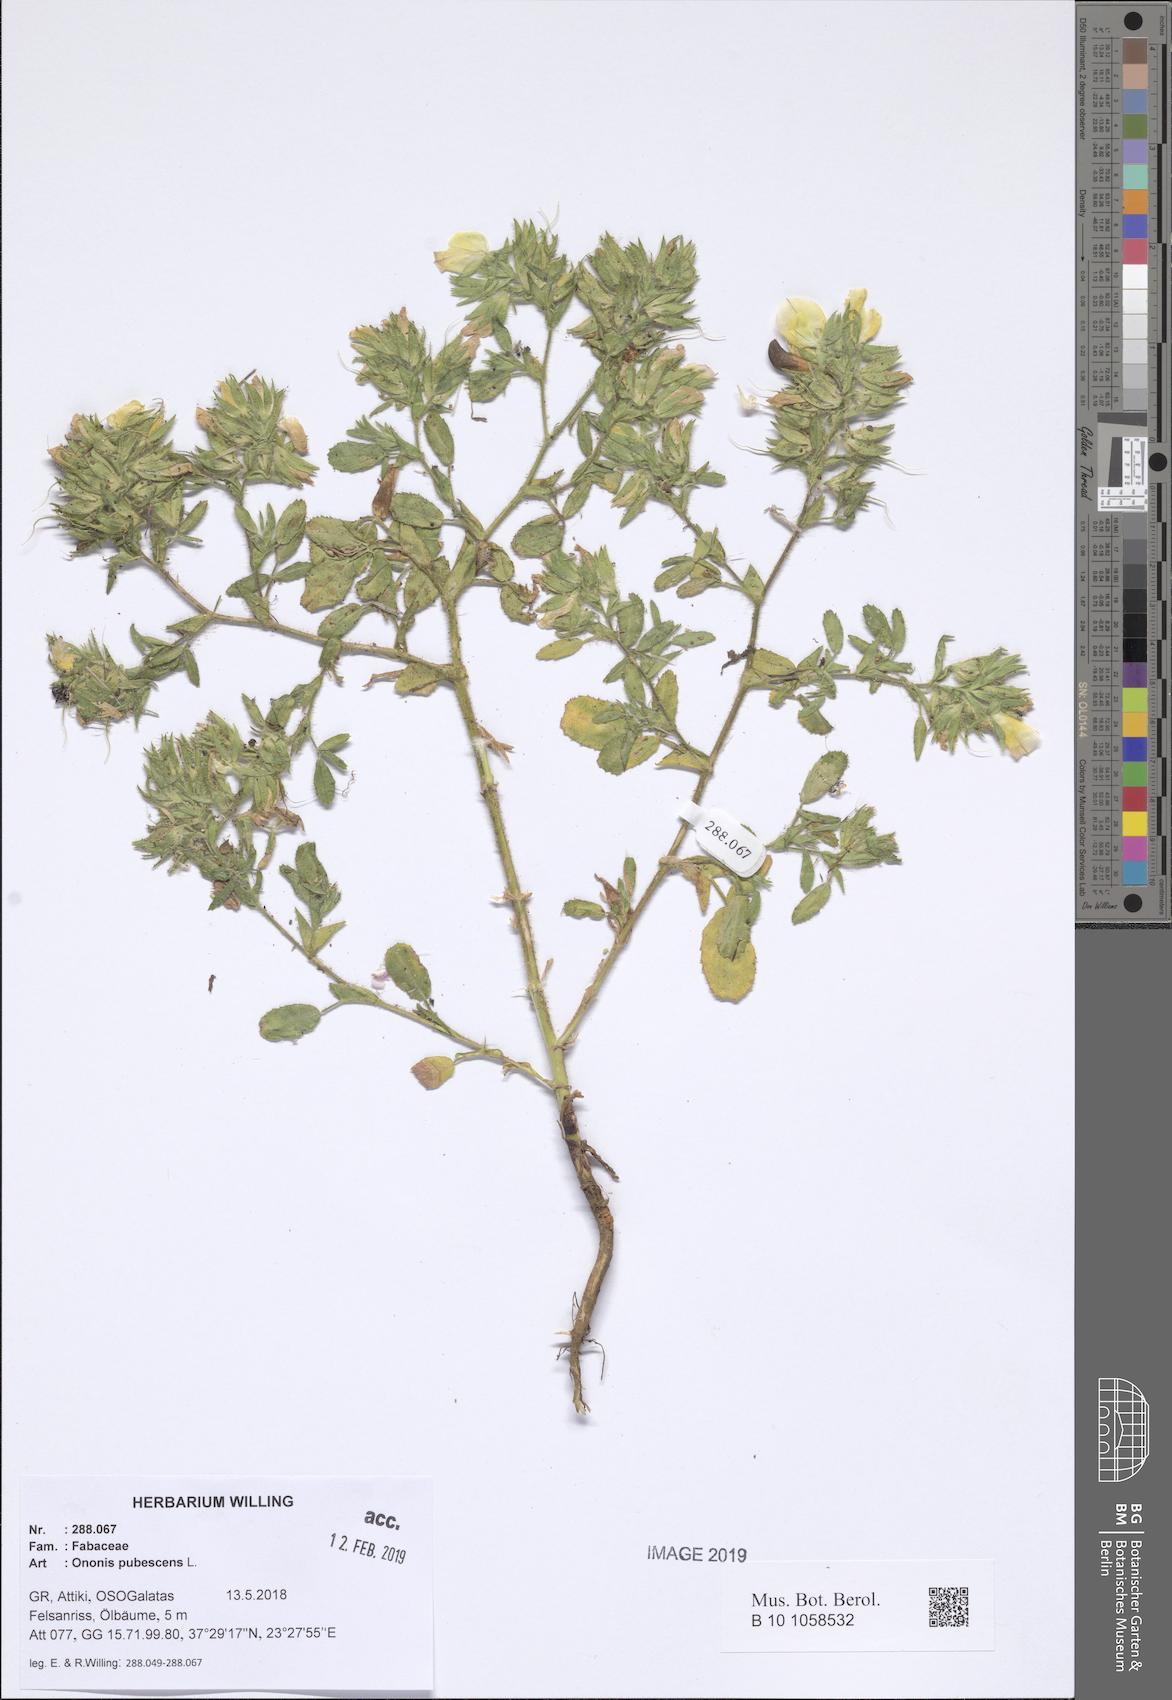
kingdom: Plantae
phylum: Tracheophyta
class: Magnoliopsida
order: Fabales
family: Fabaceae
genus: Ononis
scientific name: Ononis pubescens
